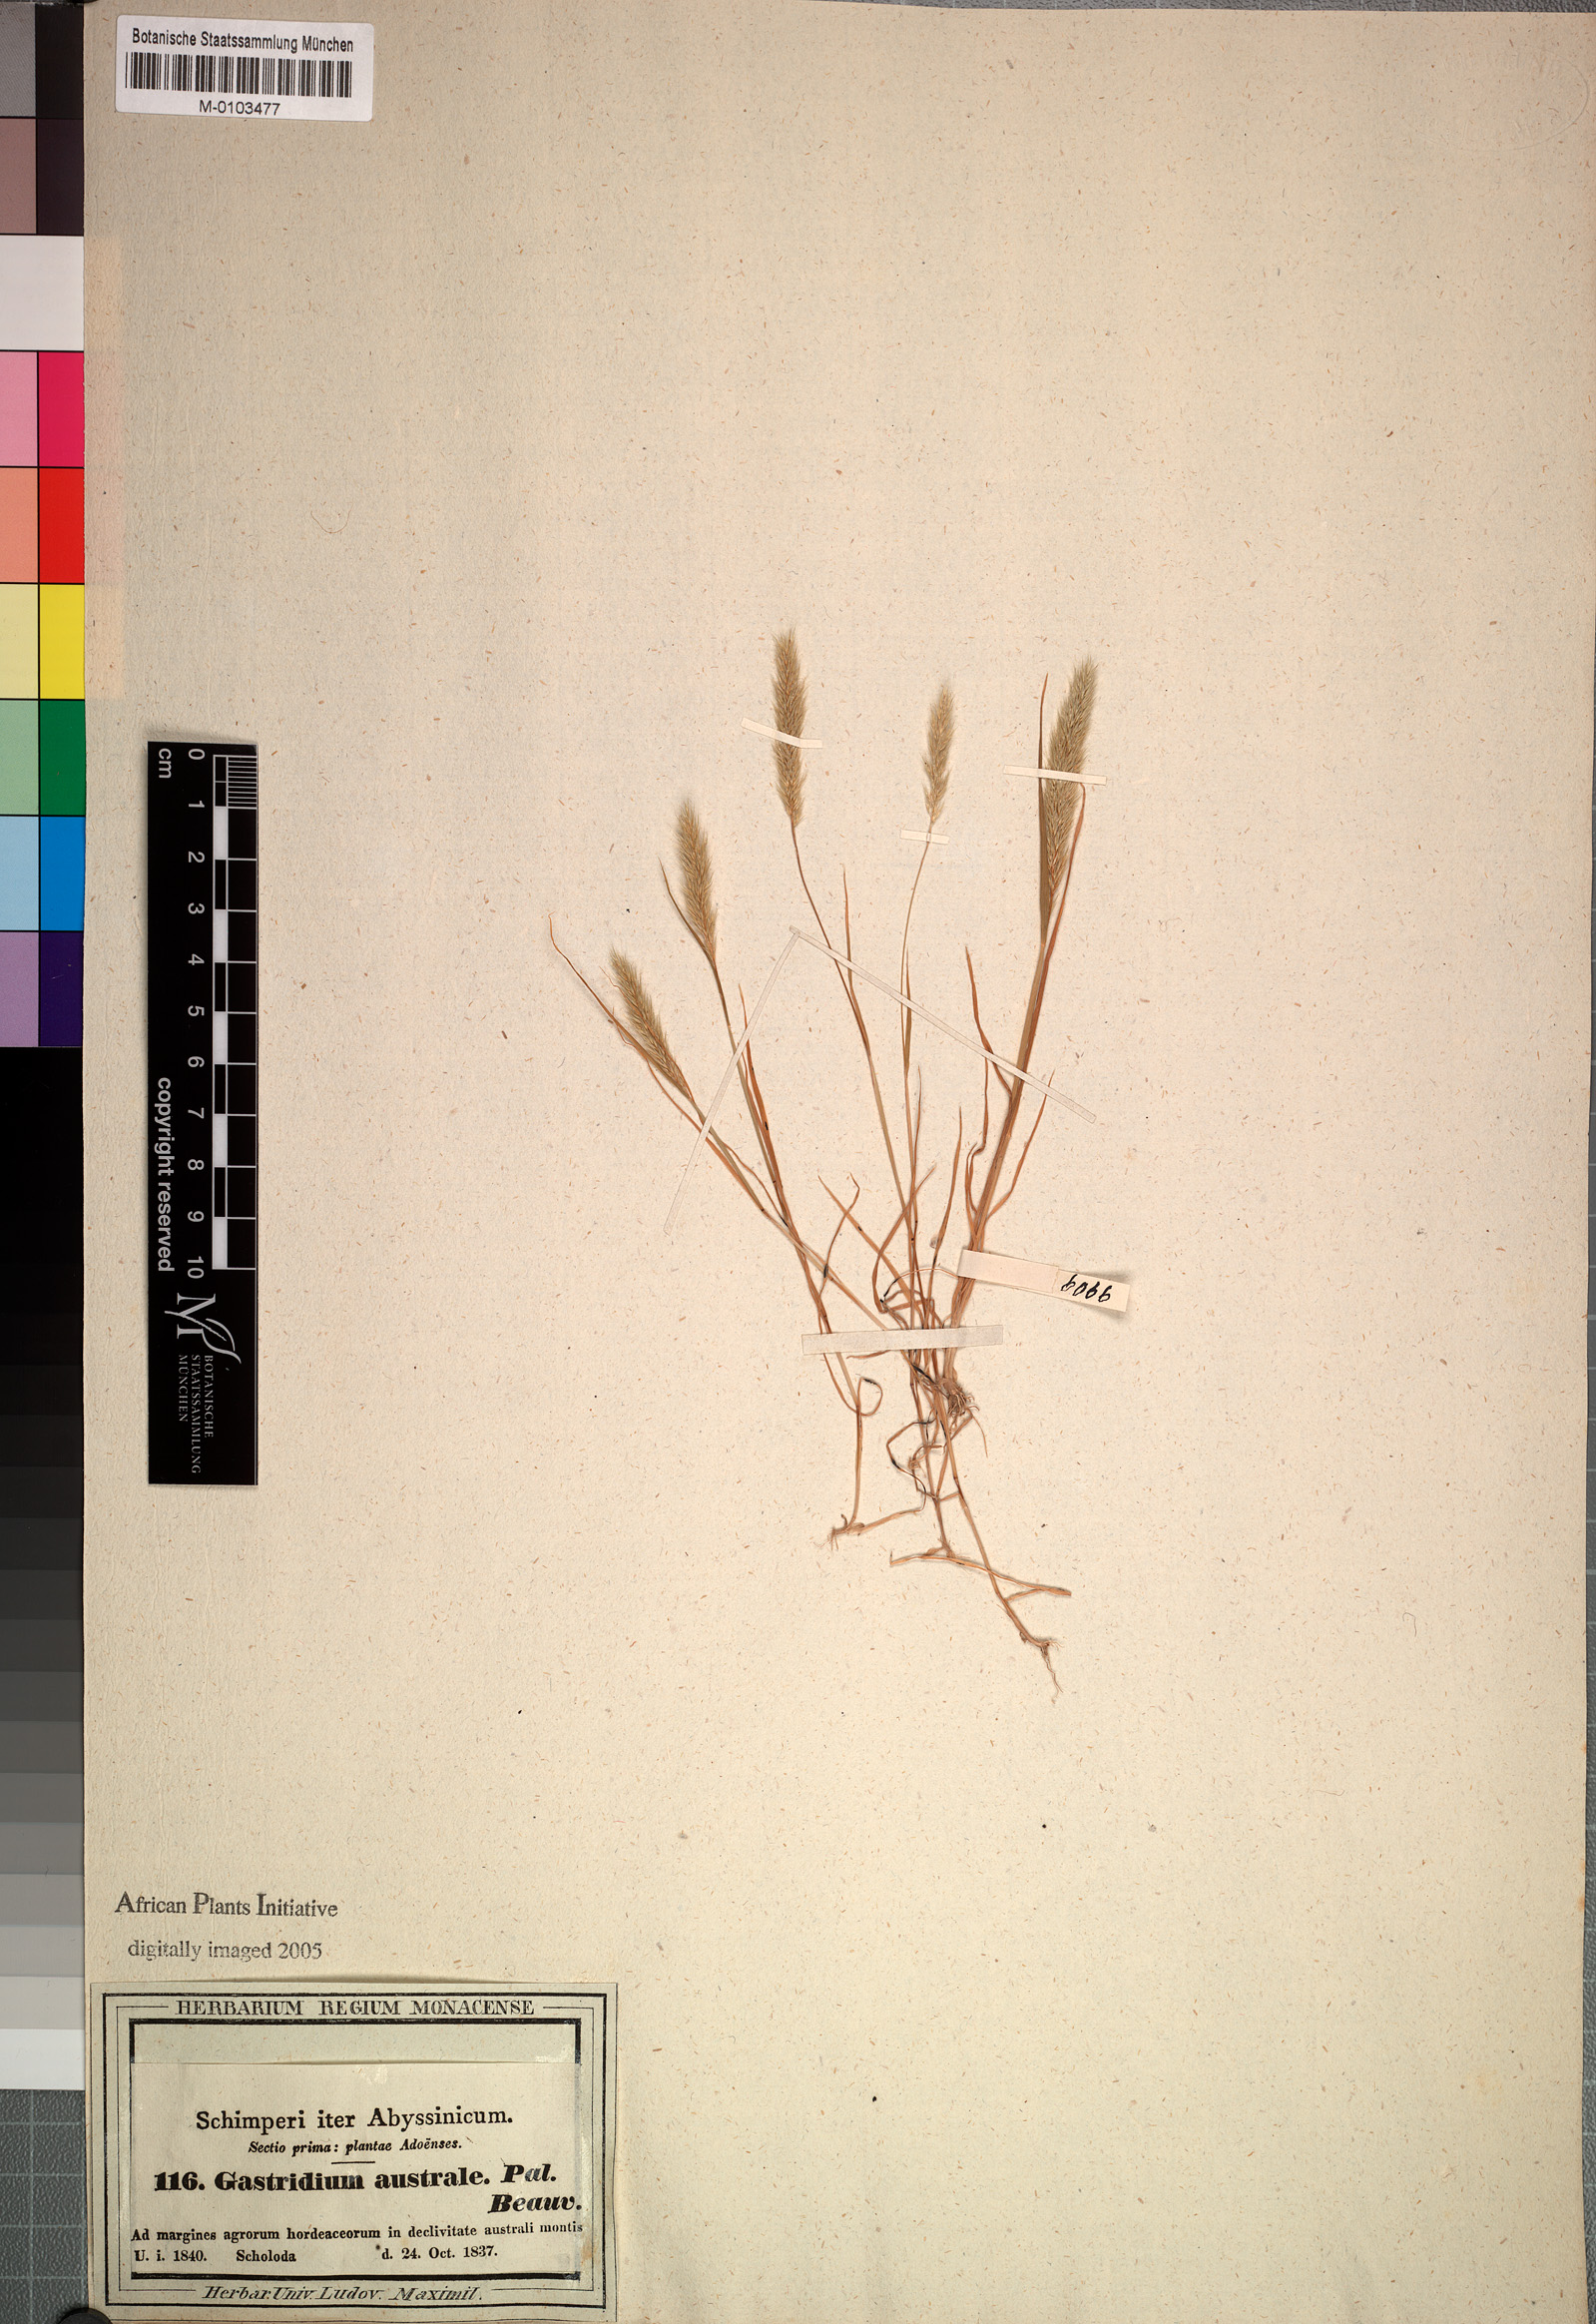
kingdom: Plantae
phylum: Tracheophyta
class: Liliopsida
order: Poales
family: Poaceae
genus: Gastridium
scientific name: Gastridium ventricosum
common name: Nit-grass
